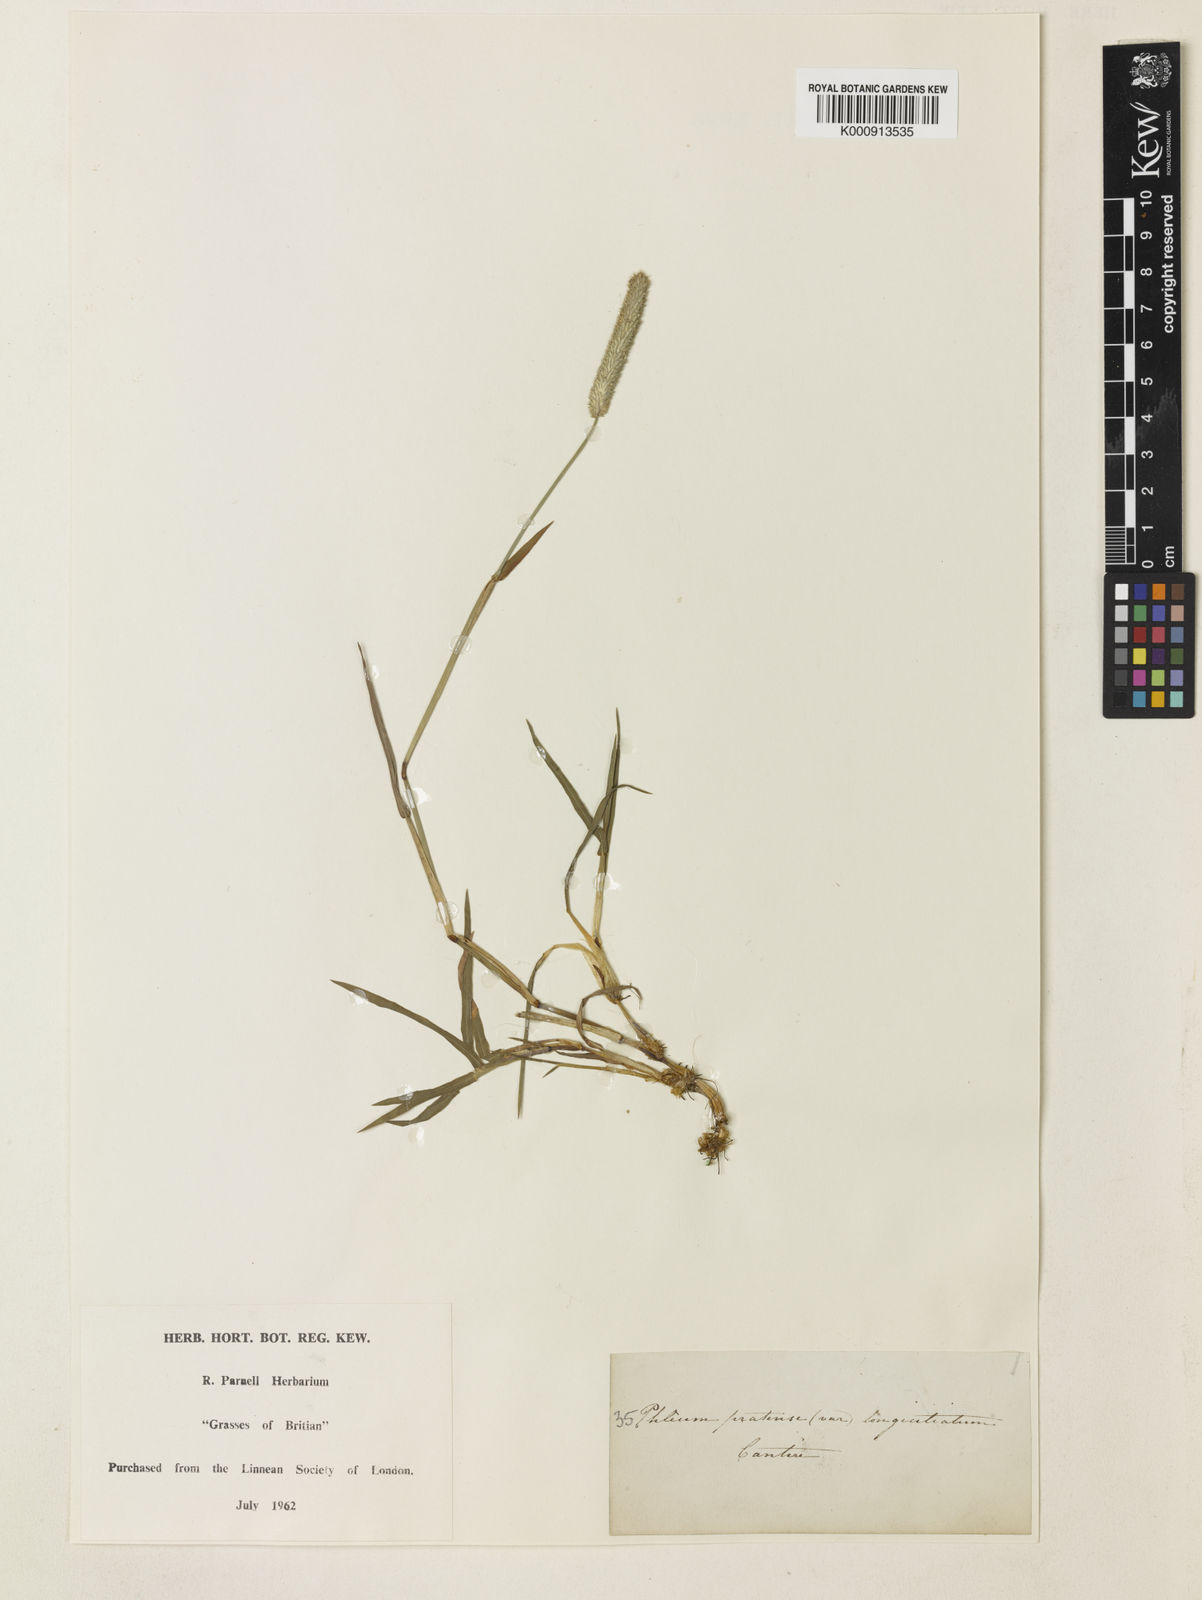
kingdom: Plantae
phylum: Tracheophyta
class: Liliopsida
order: Poales
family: Poaceae
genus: Phleum
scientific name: Phleum pratense
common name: Timothy grass
